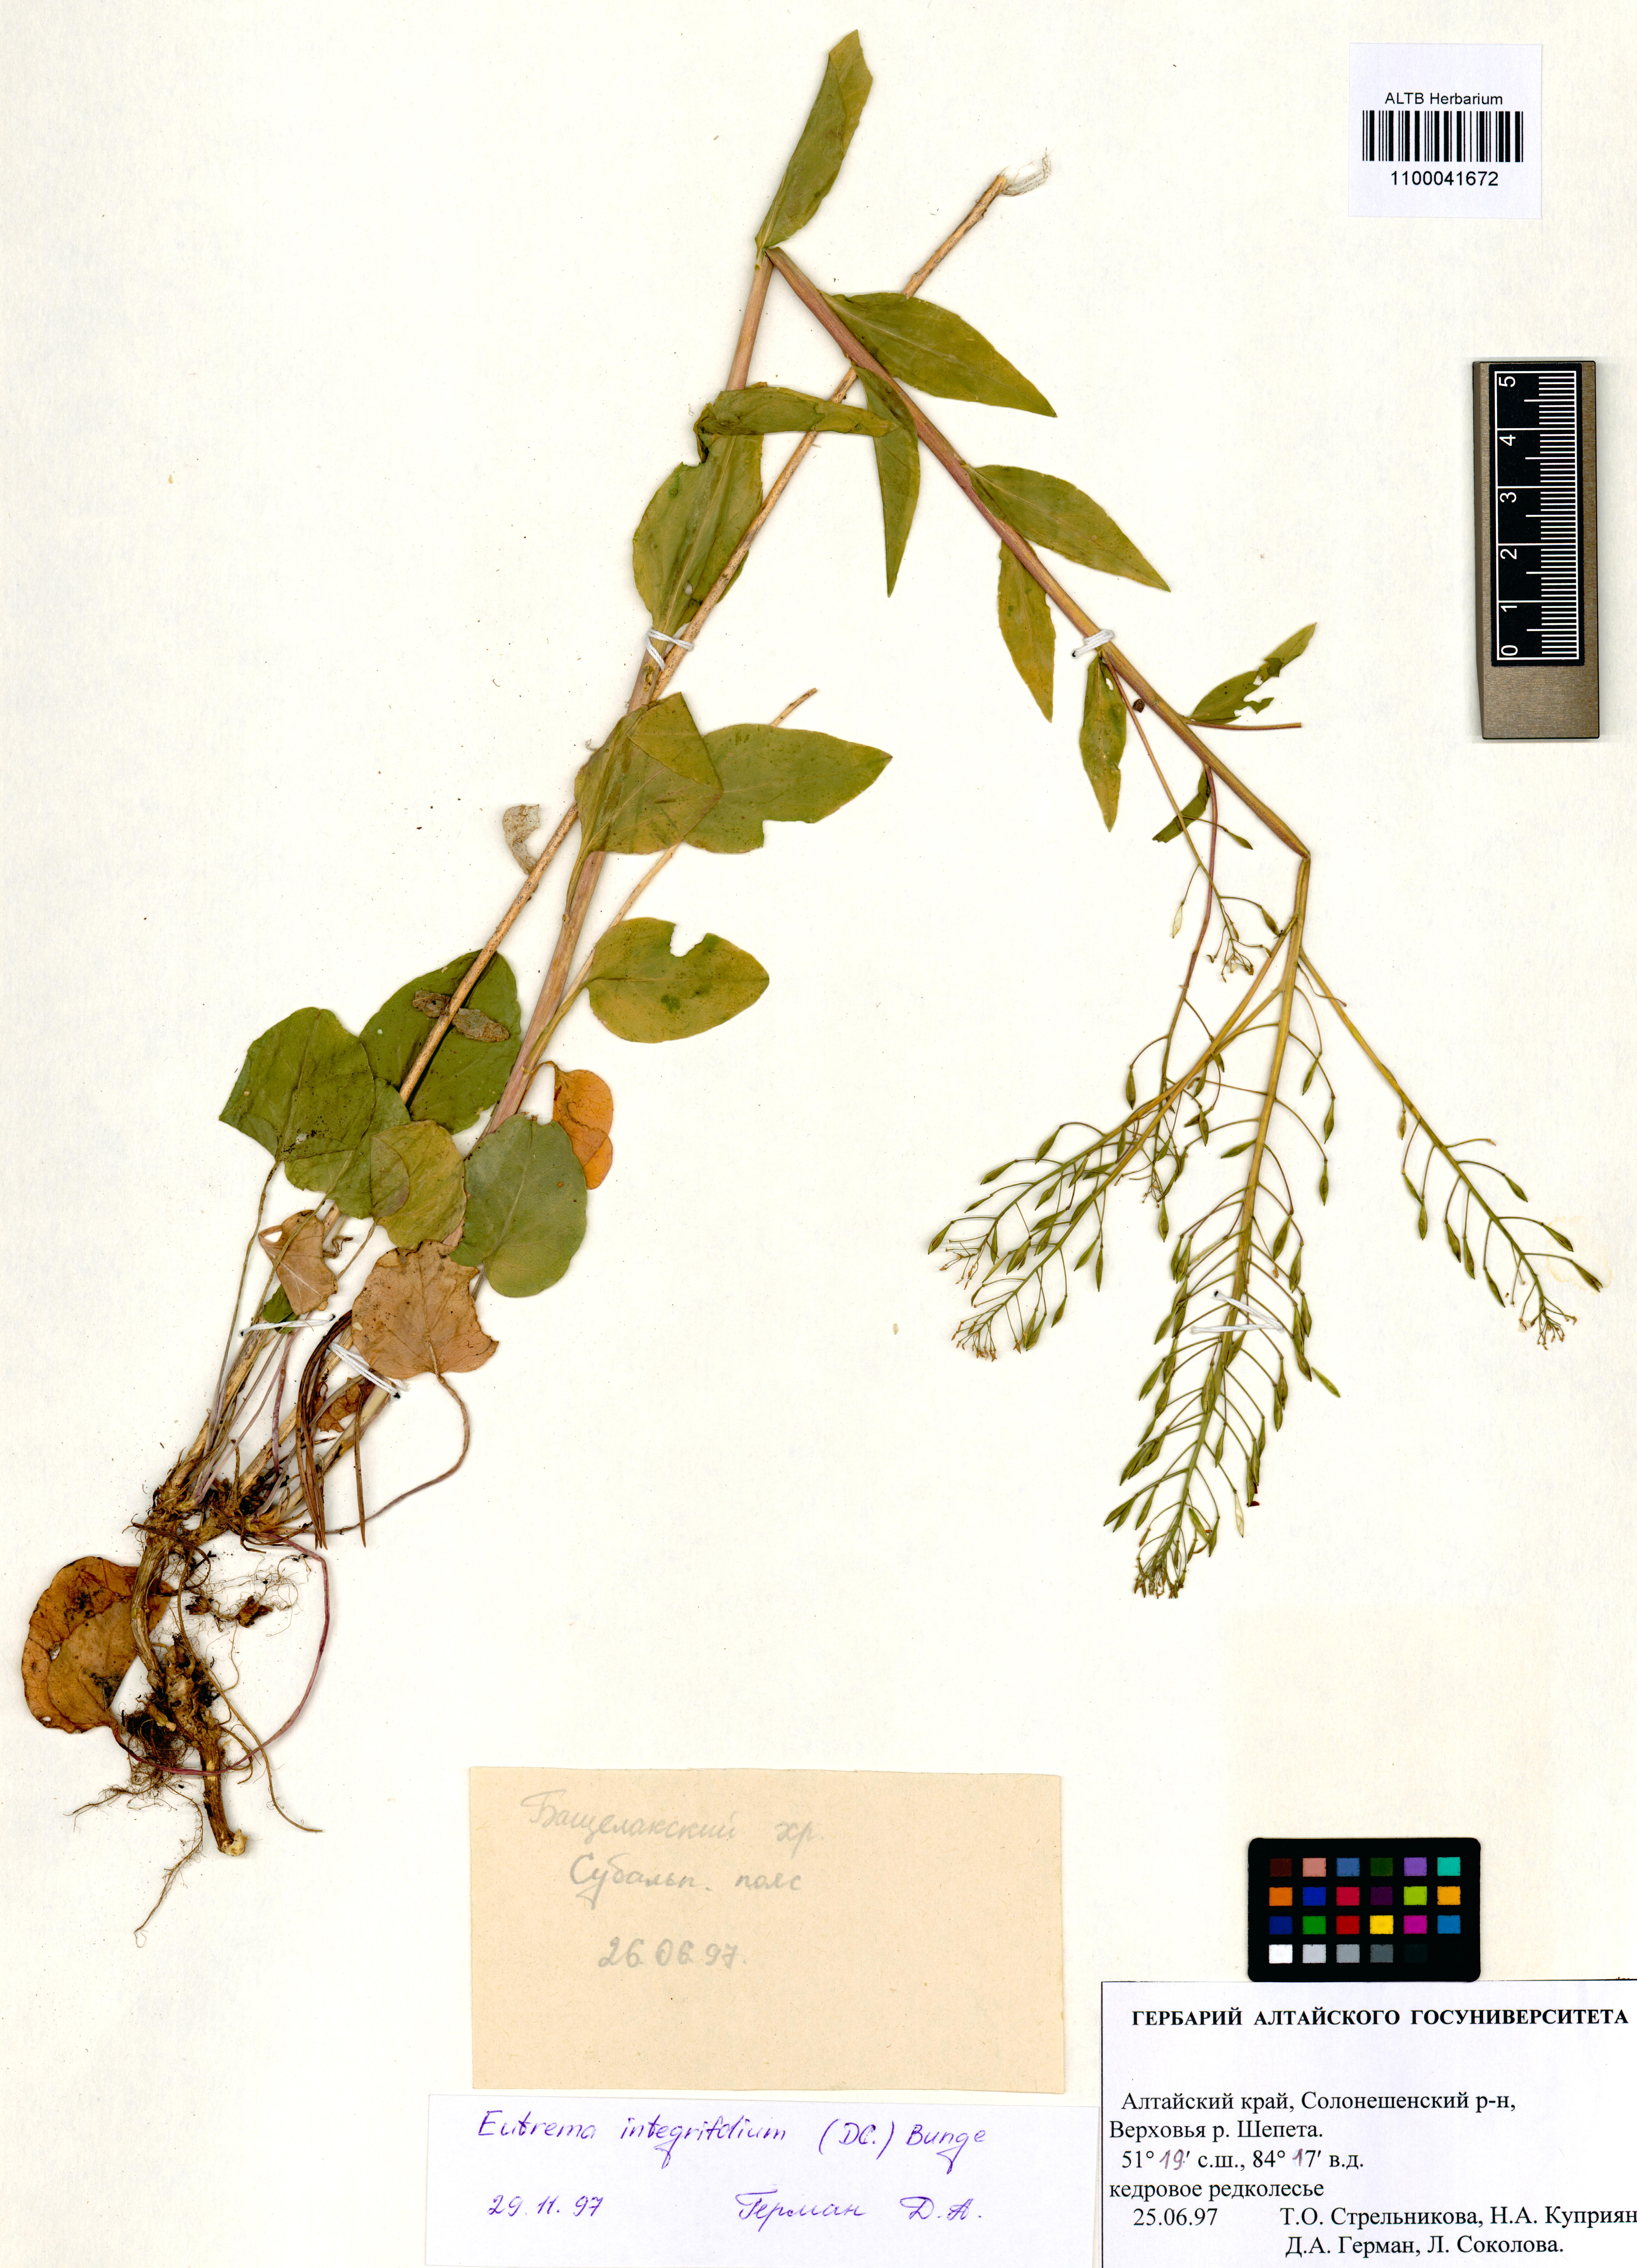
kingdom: Plantae
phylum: Tracheophyta
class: Magnoliopsida
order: Brassicales
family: Brassicaceae
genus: Eutrema
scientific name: Eutrema integrifolium
